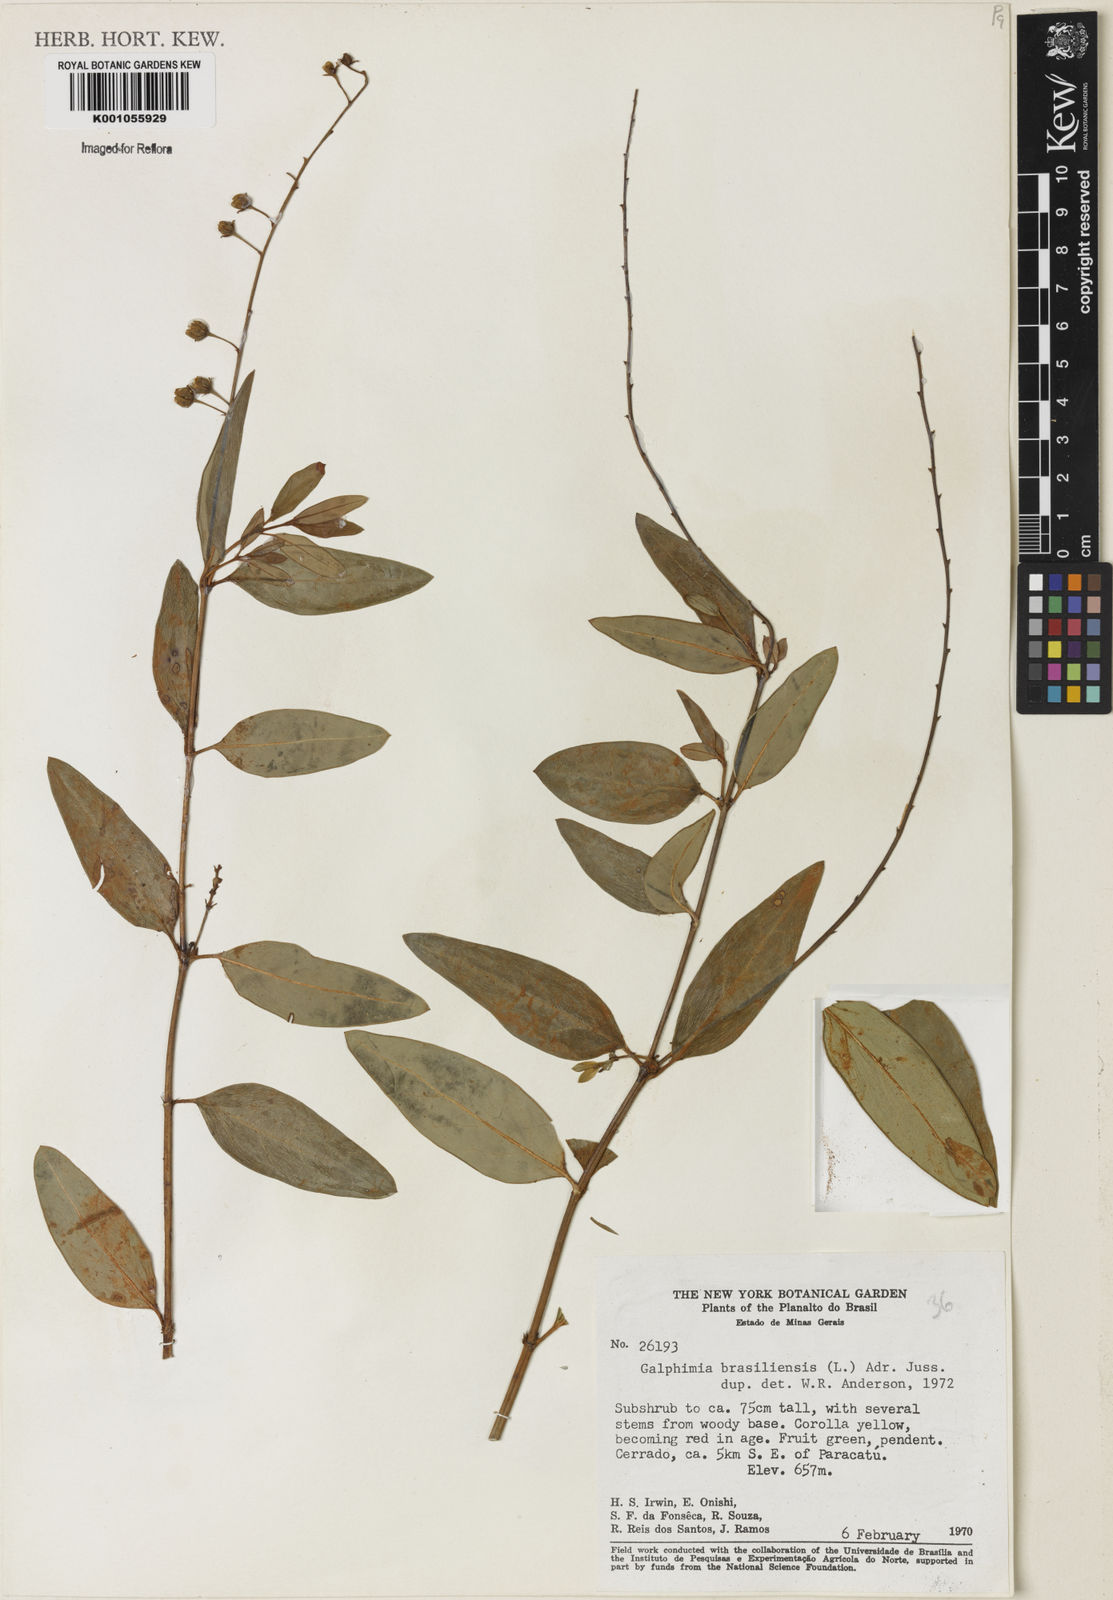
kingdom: Plantae
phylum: Tracheophyta
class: Magnoliopsida
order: Malpighiales
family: Malpighiaceae
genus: Galphimia
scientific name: Galphimia brasiliensis
